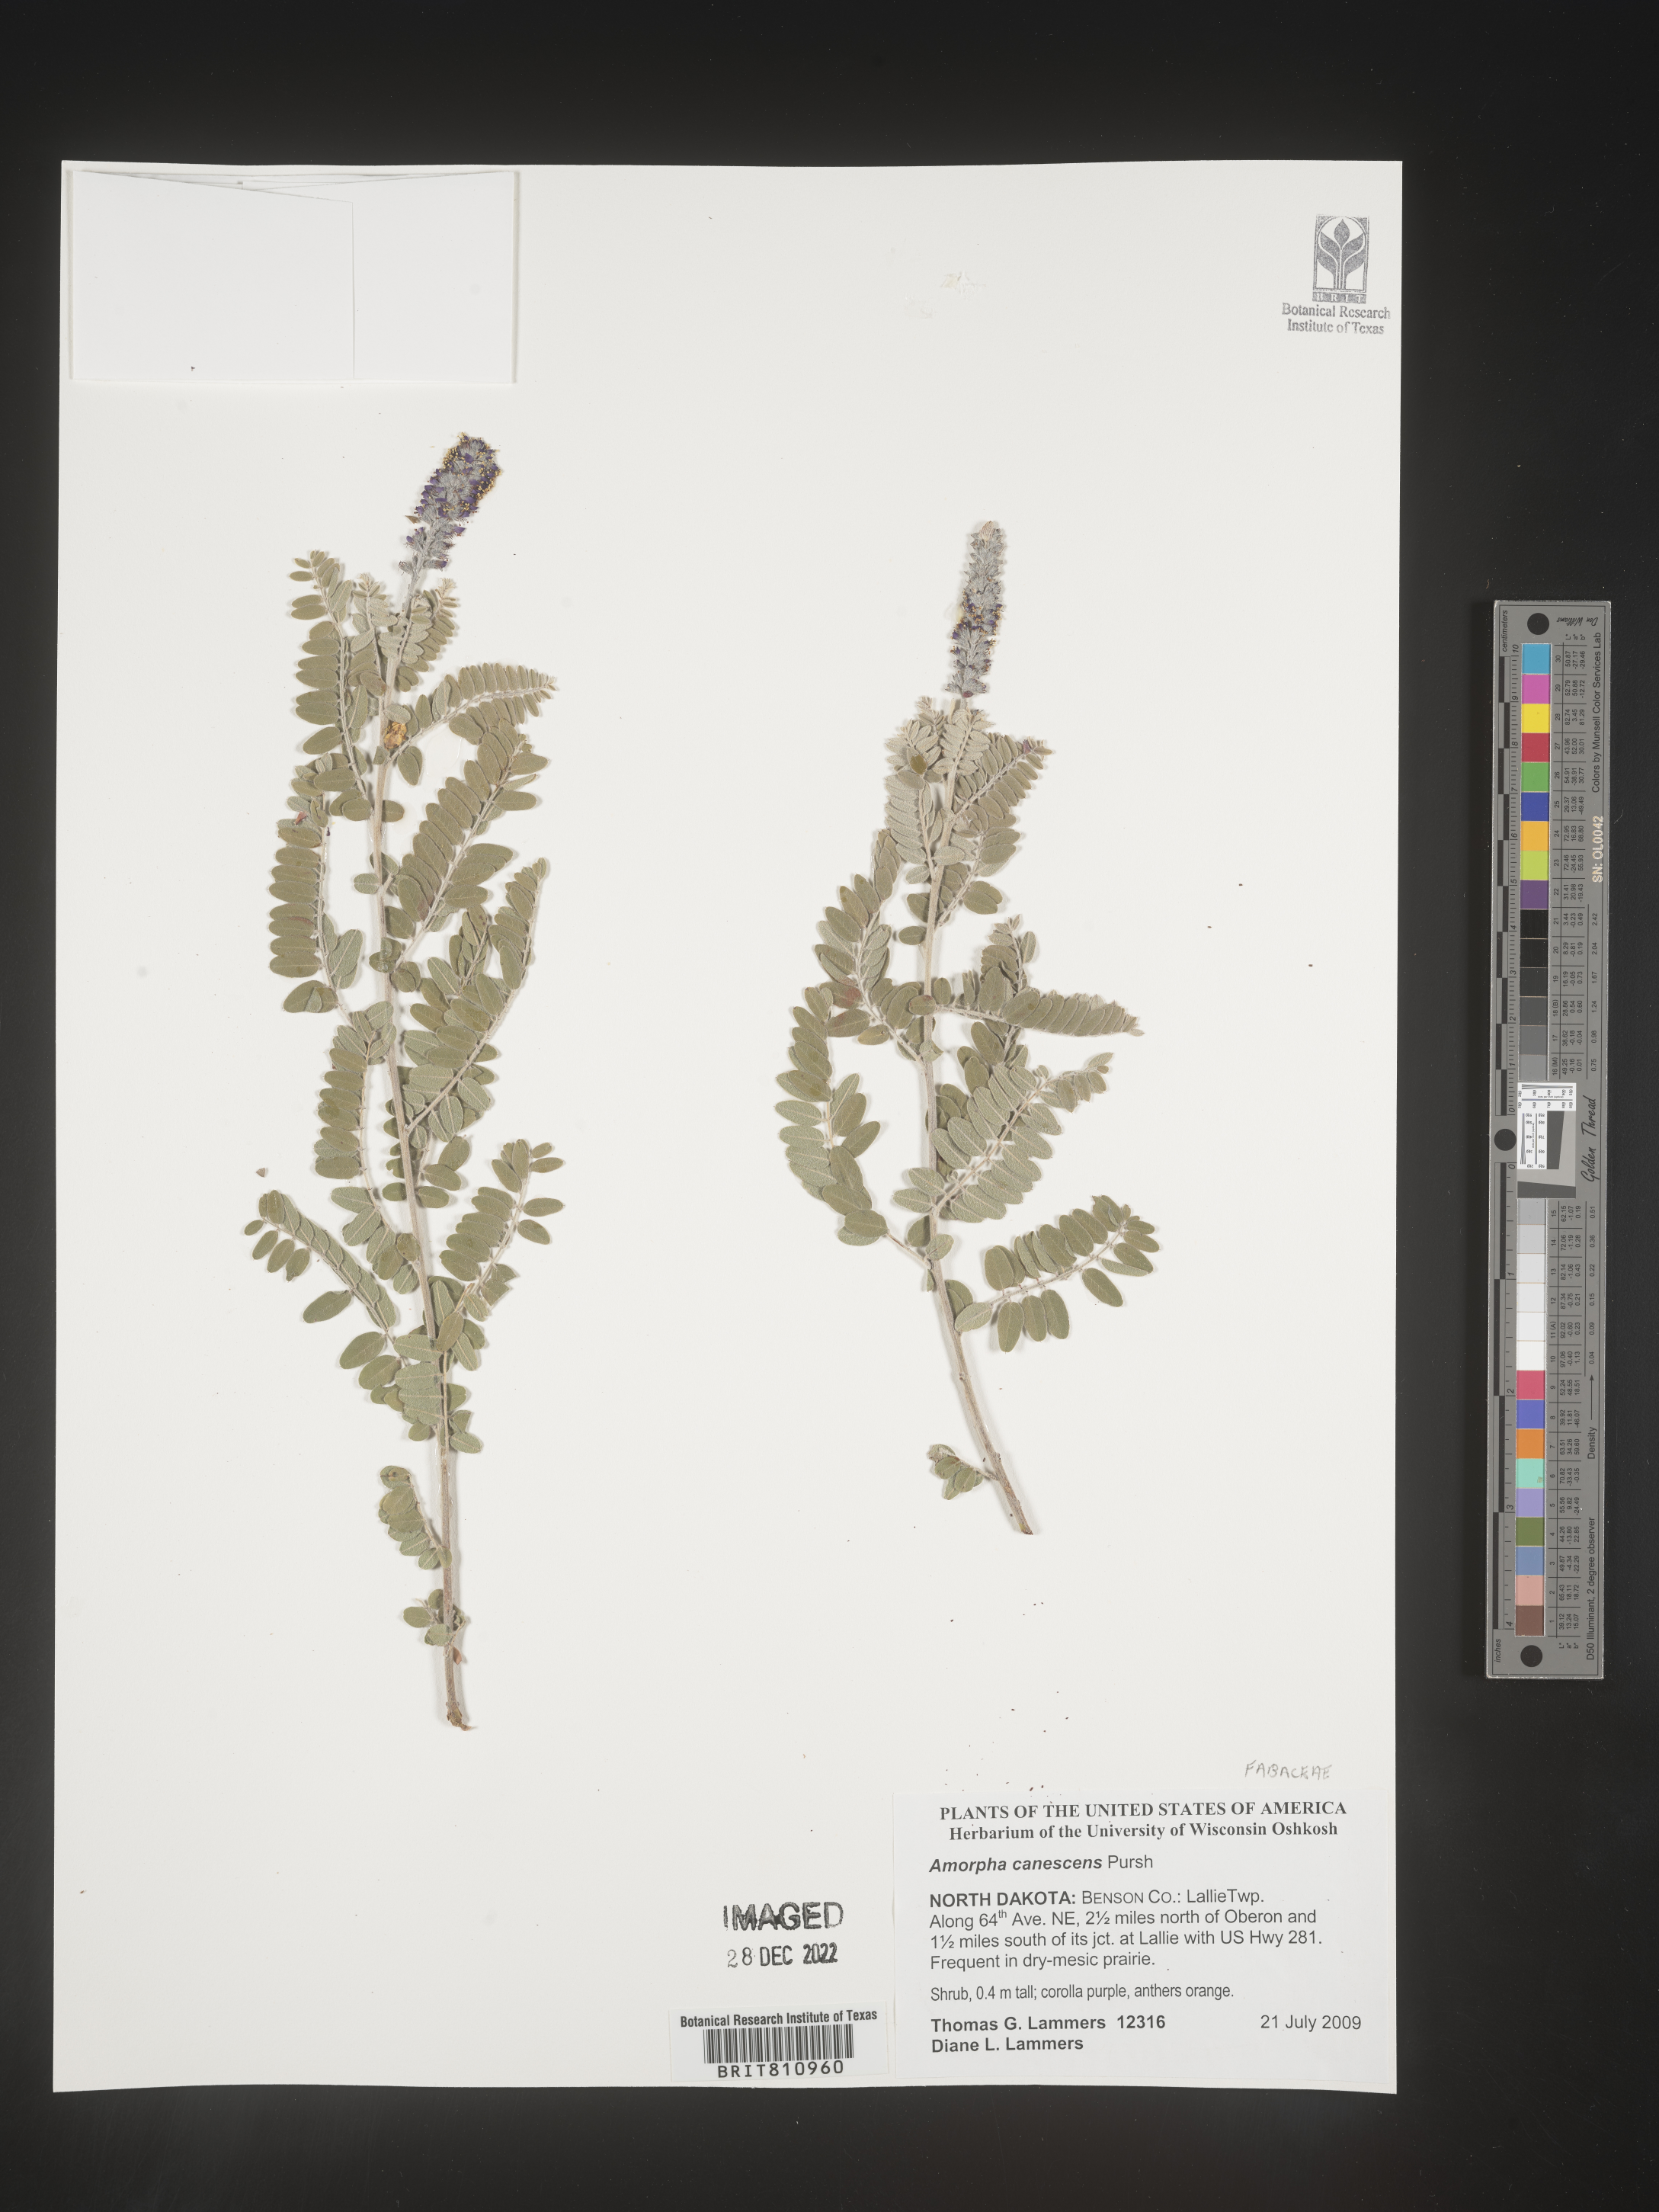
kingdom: Plantae
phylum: Tracheophyta
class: Magnoliopsida
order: Fabales
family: Fabaceae
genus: Amorpha
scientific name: Amorpha canescens
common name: Leadplant
